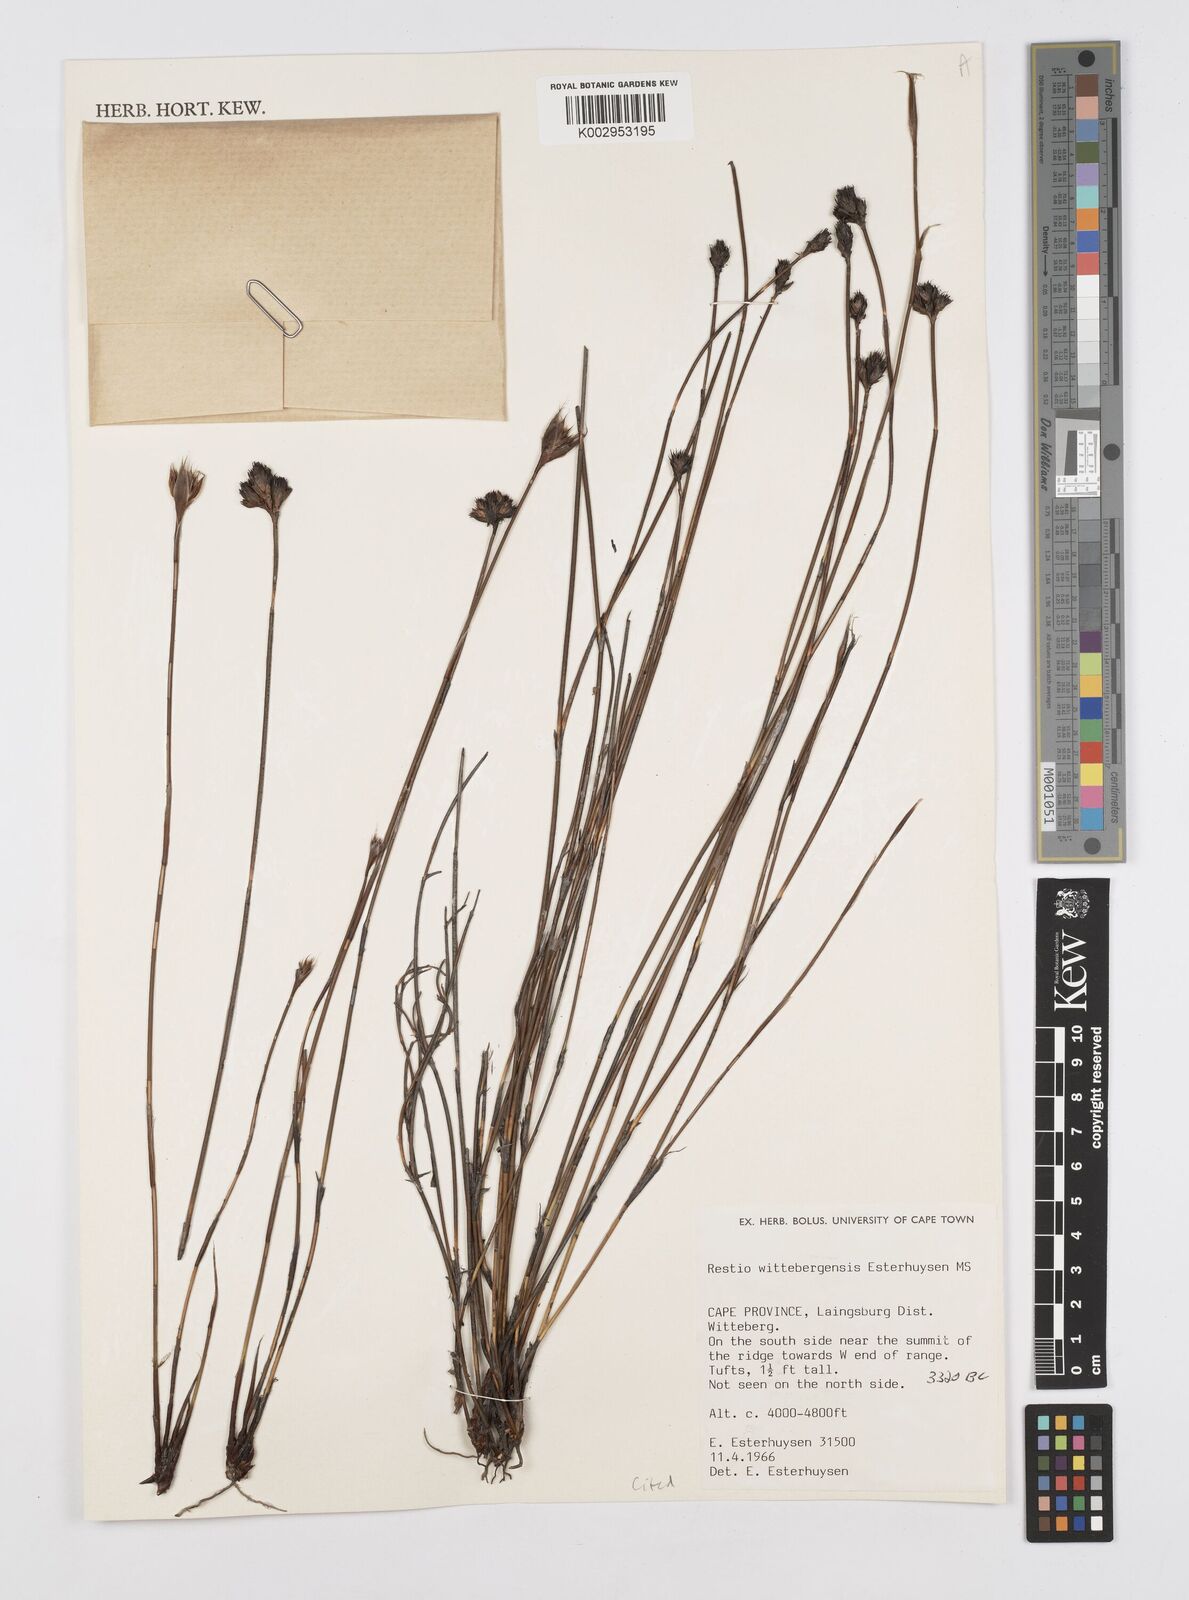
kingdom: Plantae
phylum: Tracheophyta
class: Liliopsida
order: Poales
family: Restionaceae
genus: Restio
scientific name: Restio wittebergensis
